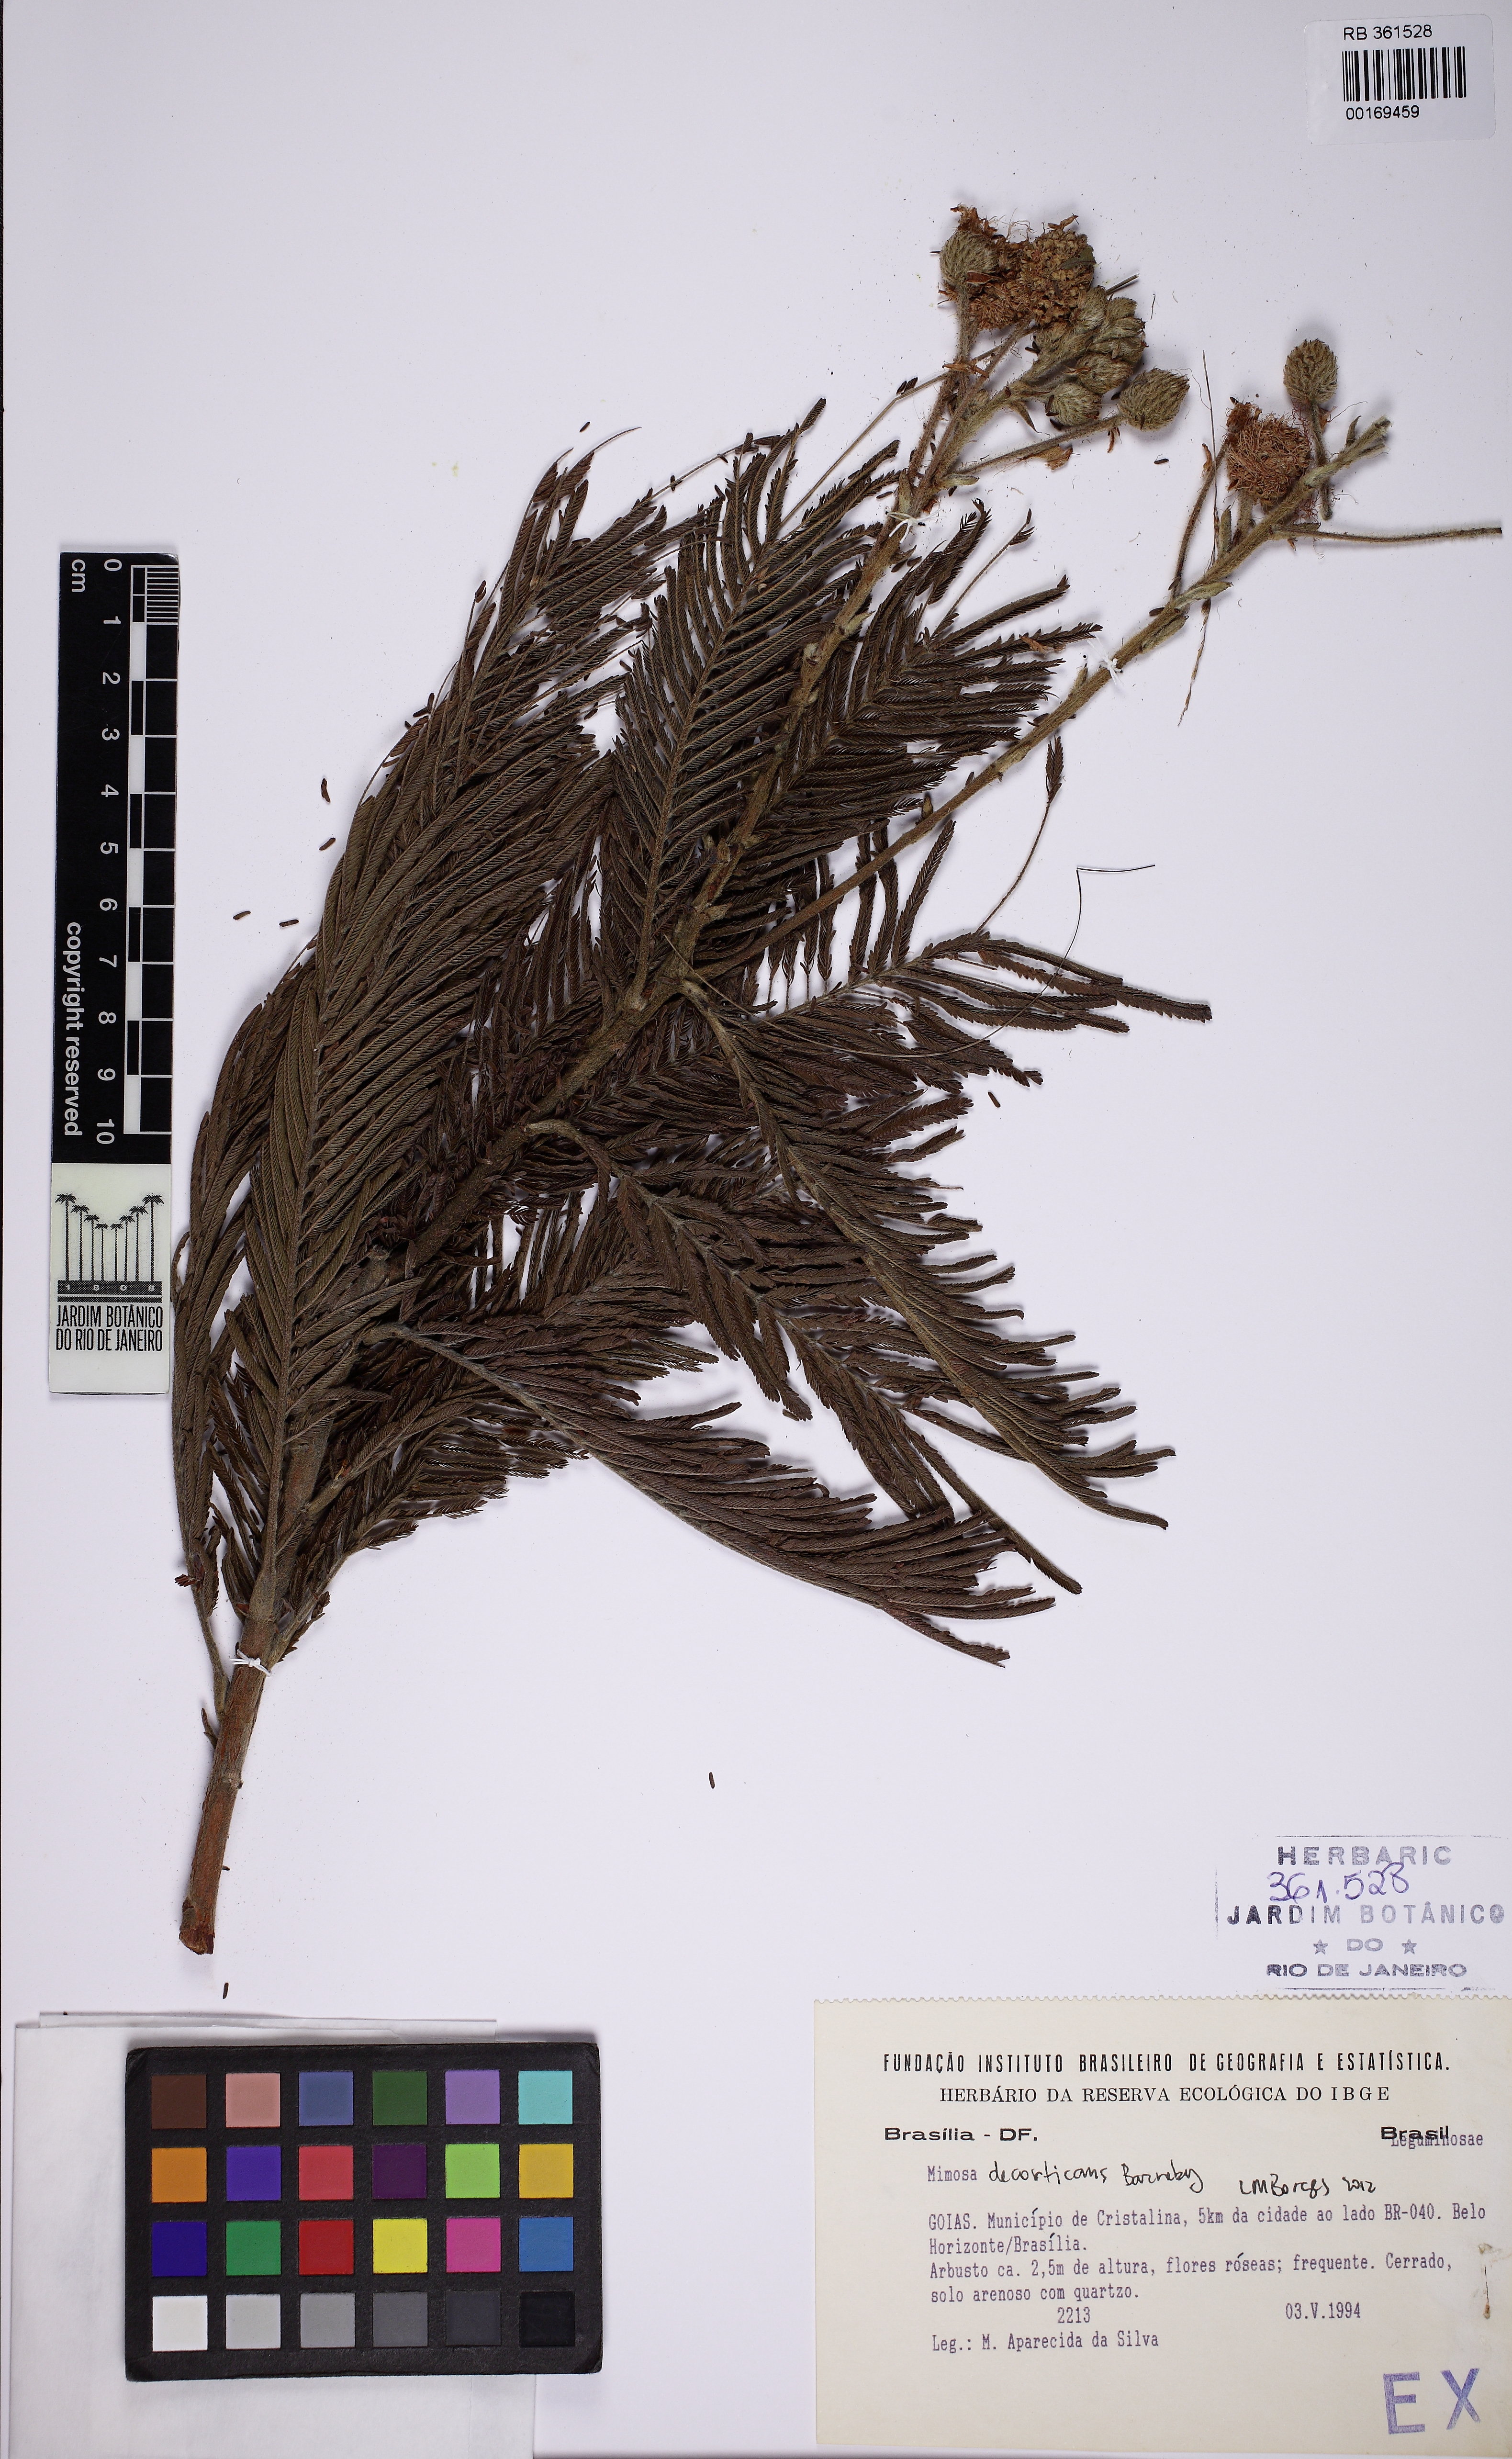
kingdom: Plantae
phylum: Tracheophyta
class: Magnoliopsida
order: Fabales
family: Fabaceae
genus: Mimosa
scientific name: Mimosa decorticans
